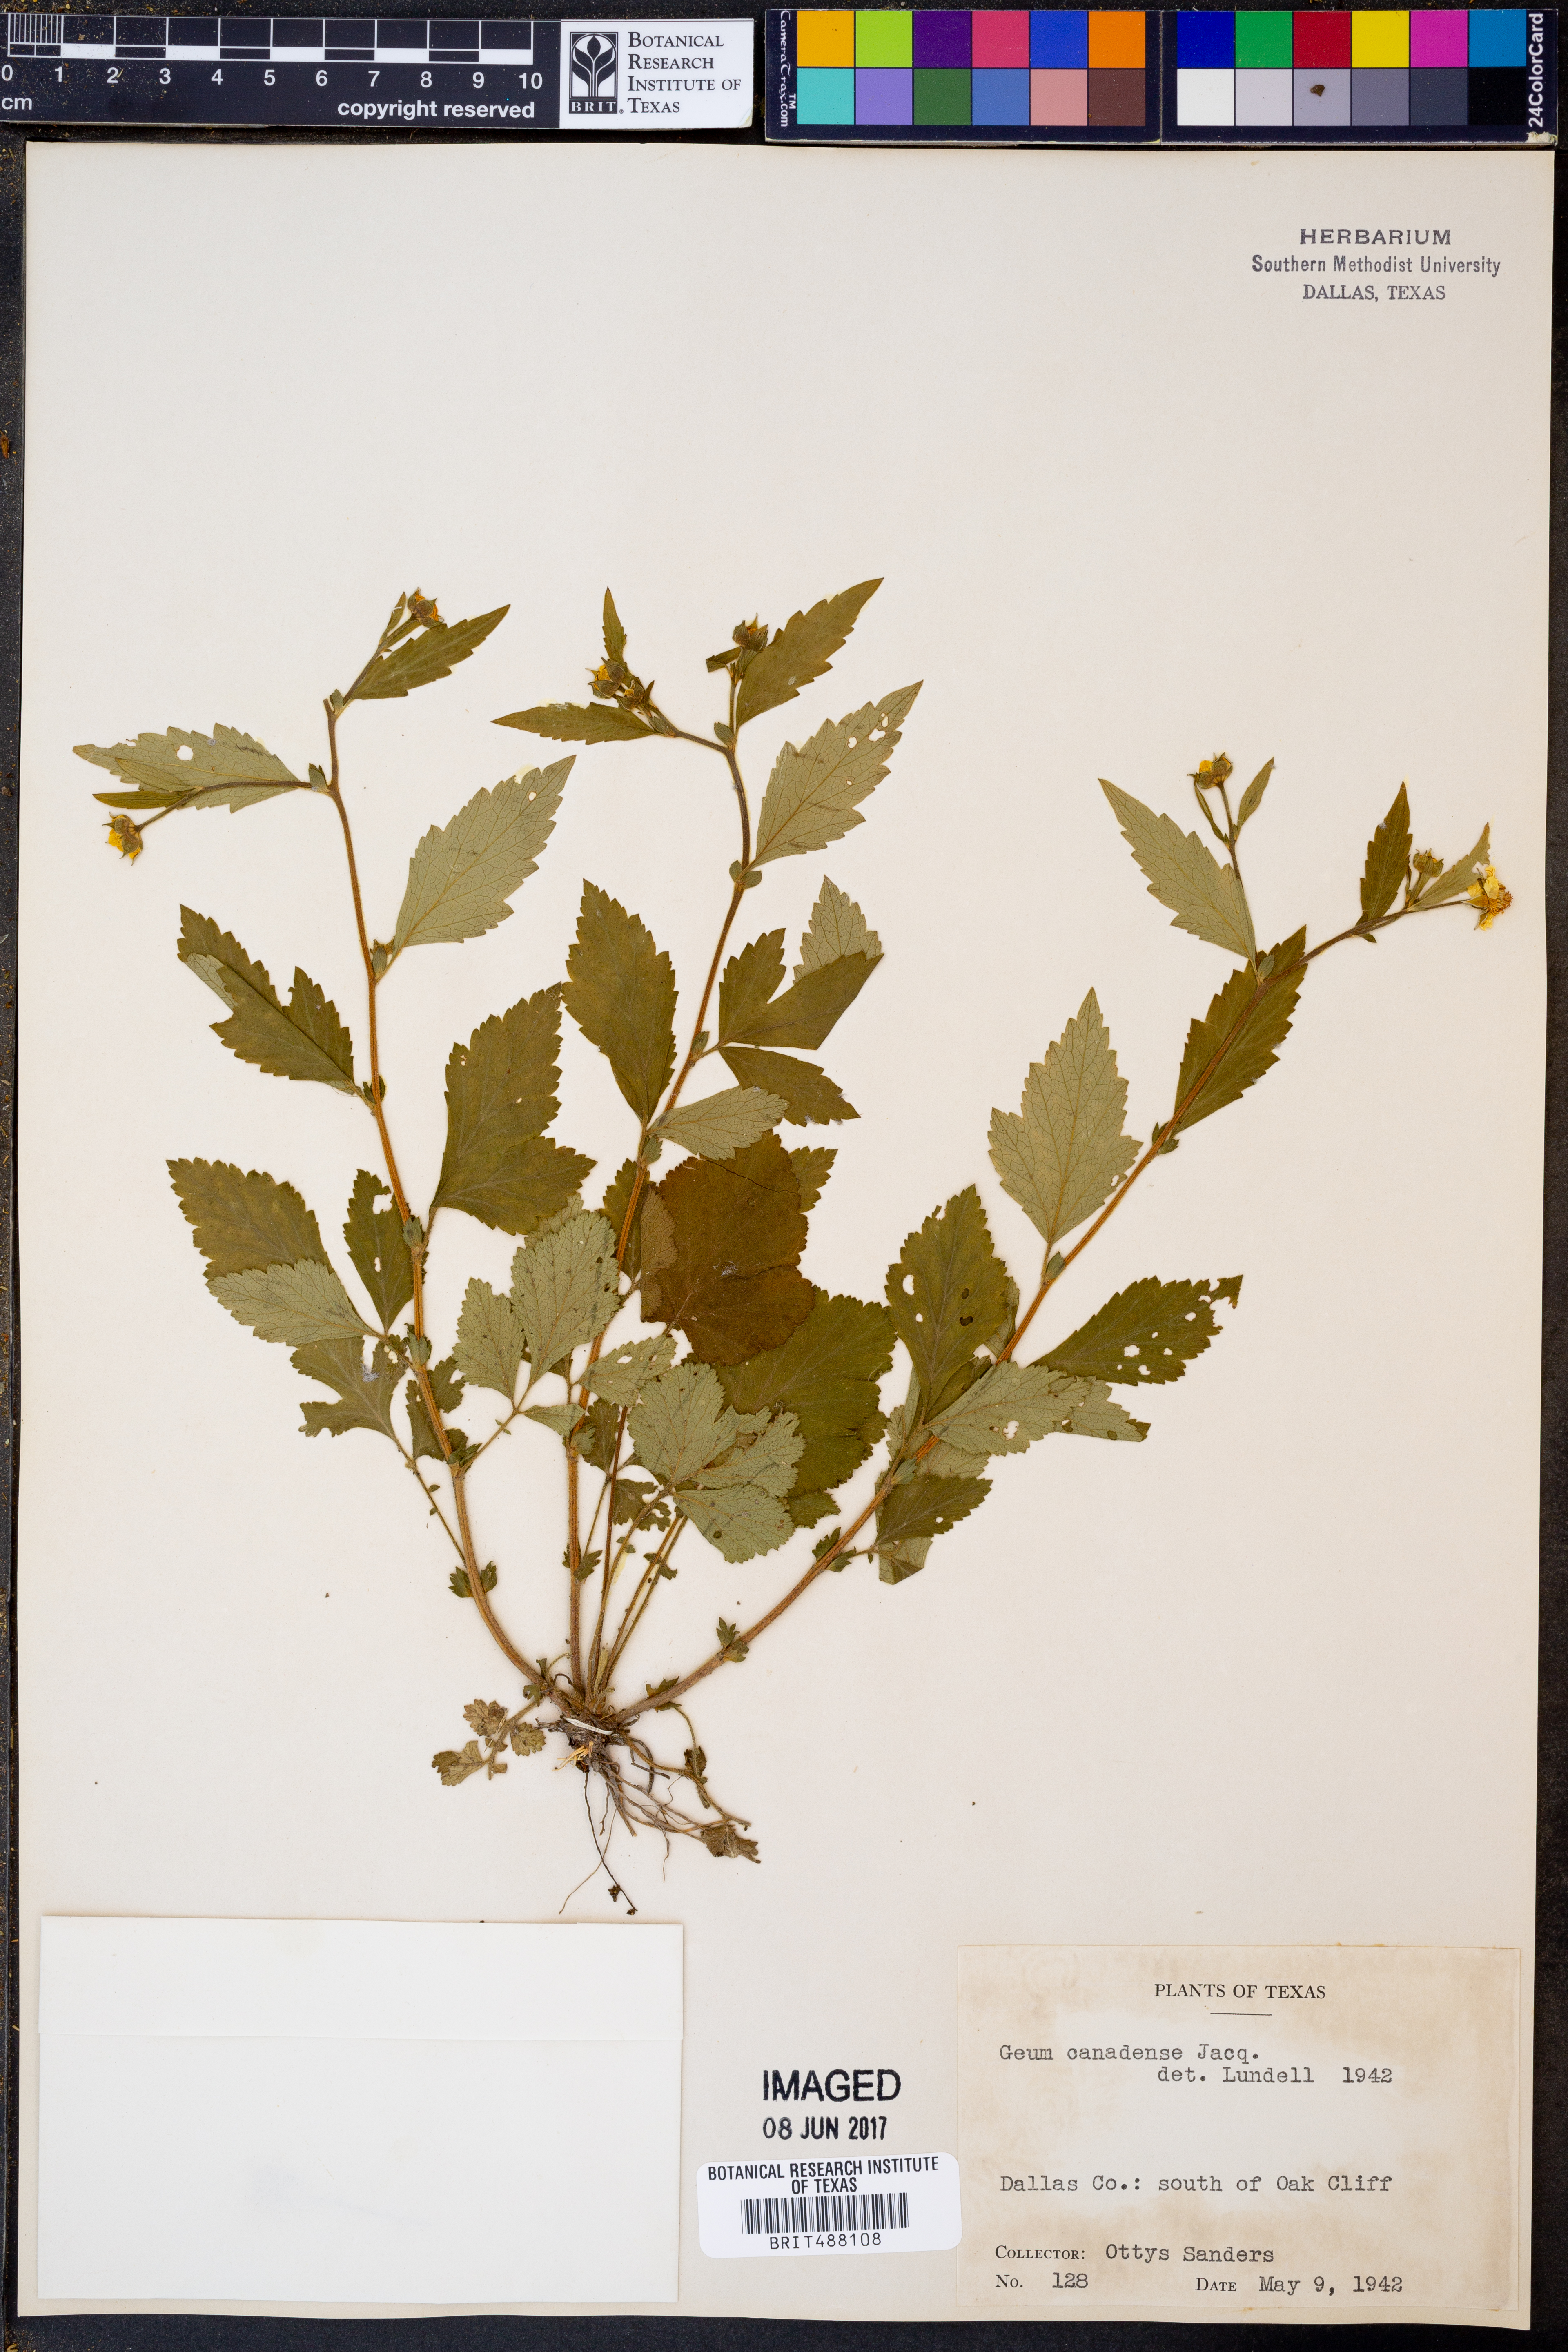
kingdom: Plantae
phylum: Tracheophyta
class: Magnoliopsida
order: Rosales
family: Rosaceae
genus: Geum
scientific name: Geum canadense
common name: White avens
